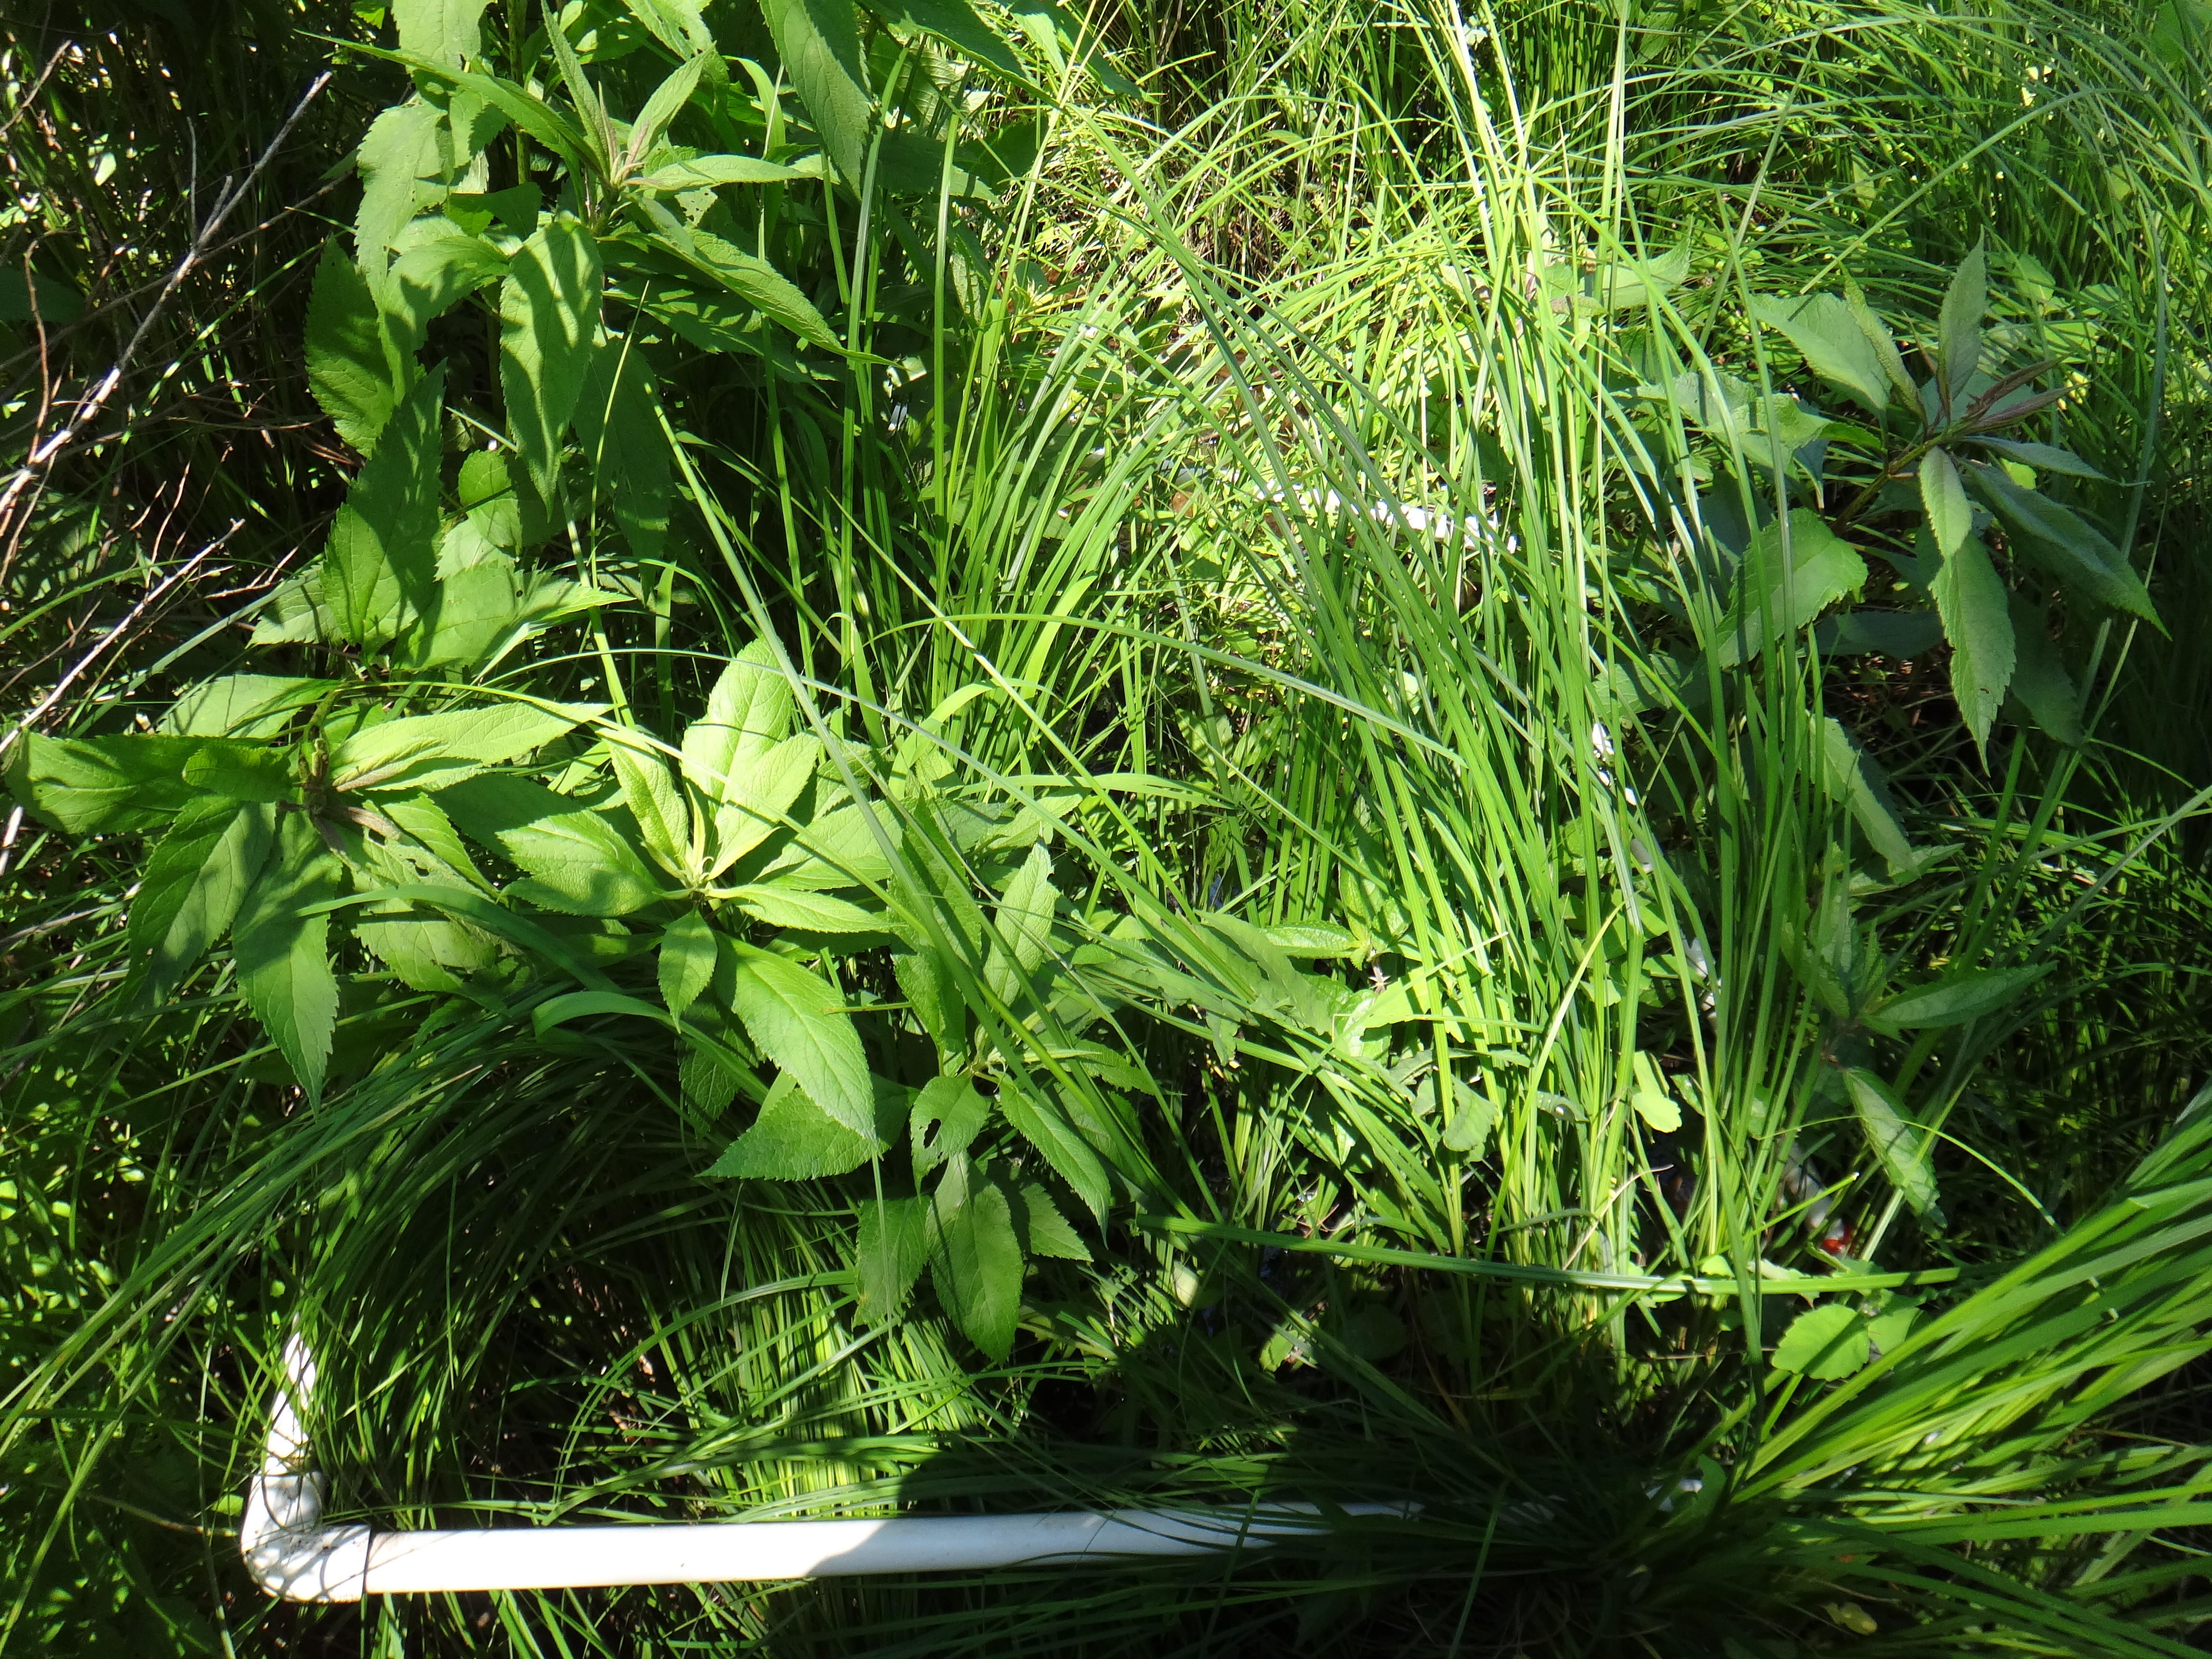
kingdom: Plantae
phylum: Tracheophyta
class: Magnoliopsida
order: Caryophyllales
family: Polygonaceae
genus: Persicaria
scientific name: Persicaria sagittata
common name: American tearthumb
